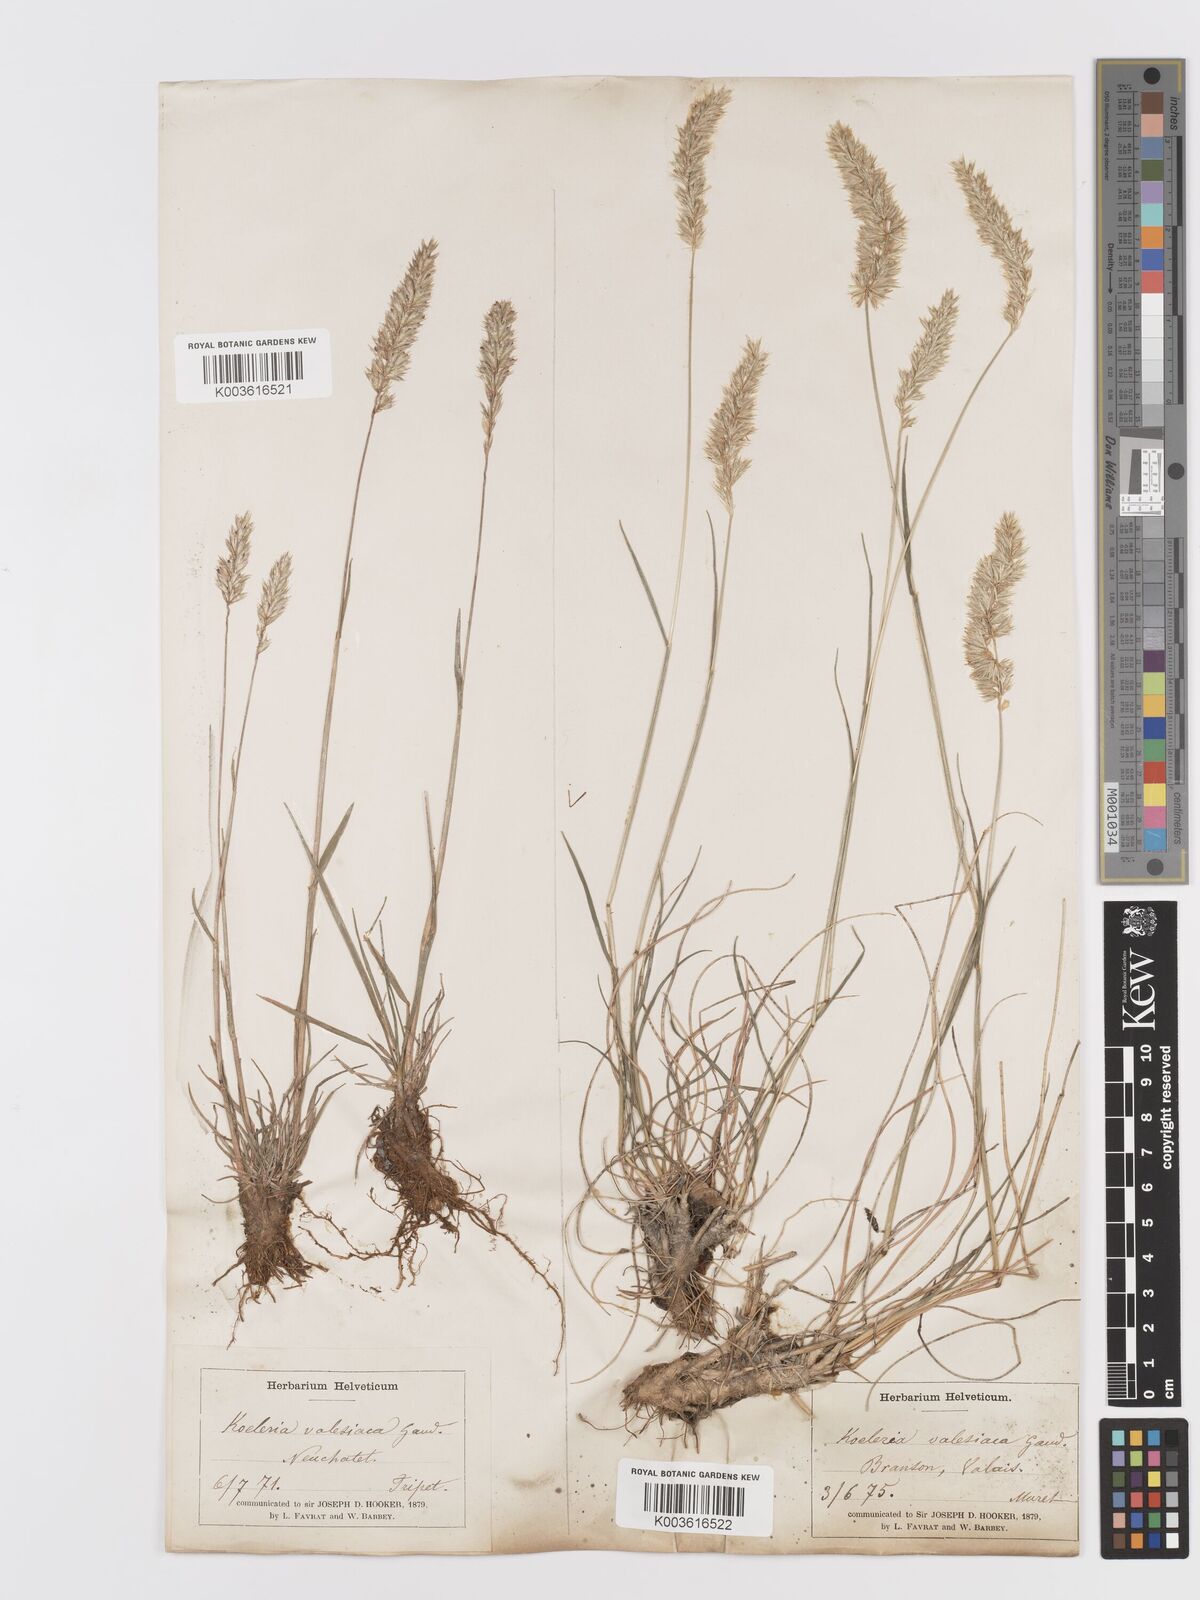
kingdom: Plantae
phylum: Tracheophyta
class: Liliopsida
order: Poales
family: Poaceae
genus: Koeleria
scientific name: Koeleria vallesiana
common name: Somerset hair-grass
